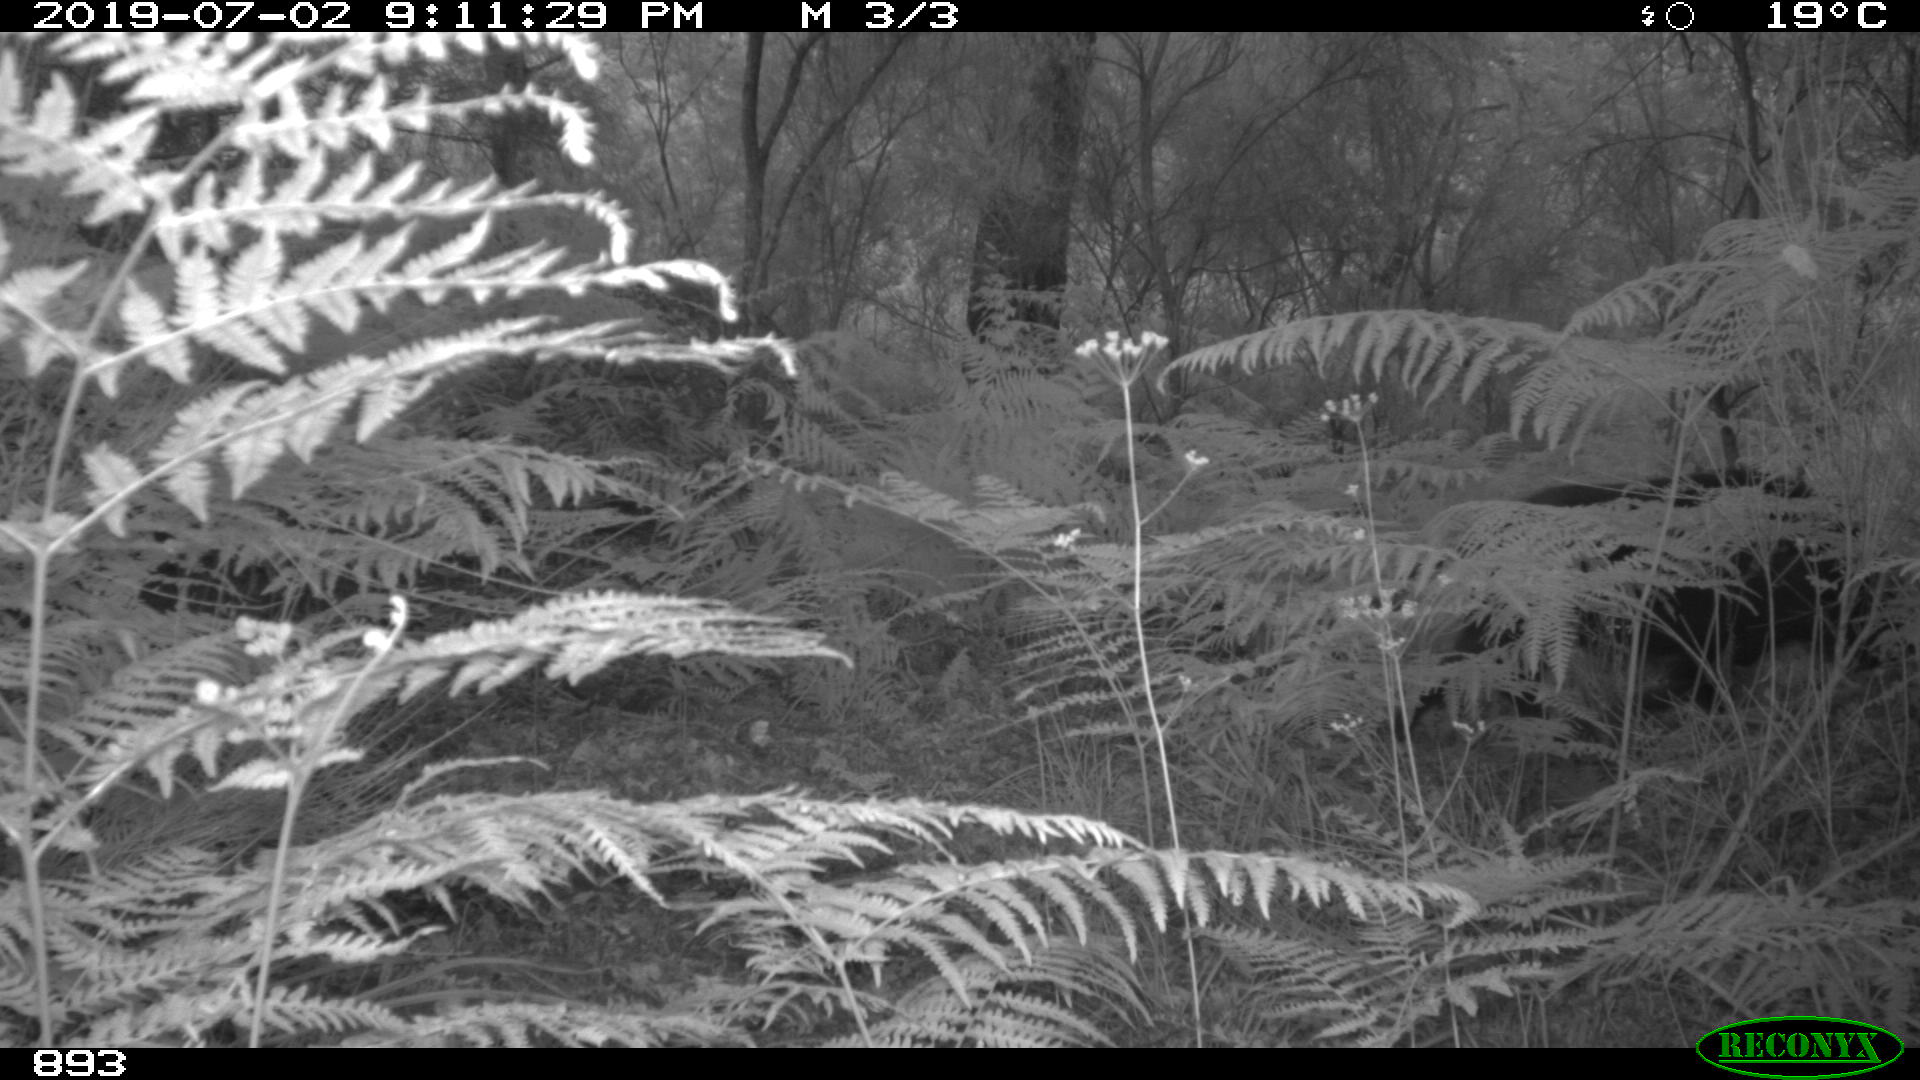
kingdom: Animalia
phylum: Chordata
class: Mammalia
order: Artiodactyla
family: Suidae
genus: Sus
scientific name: Sus scrofa
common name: Wild boar
